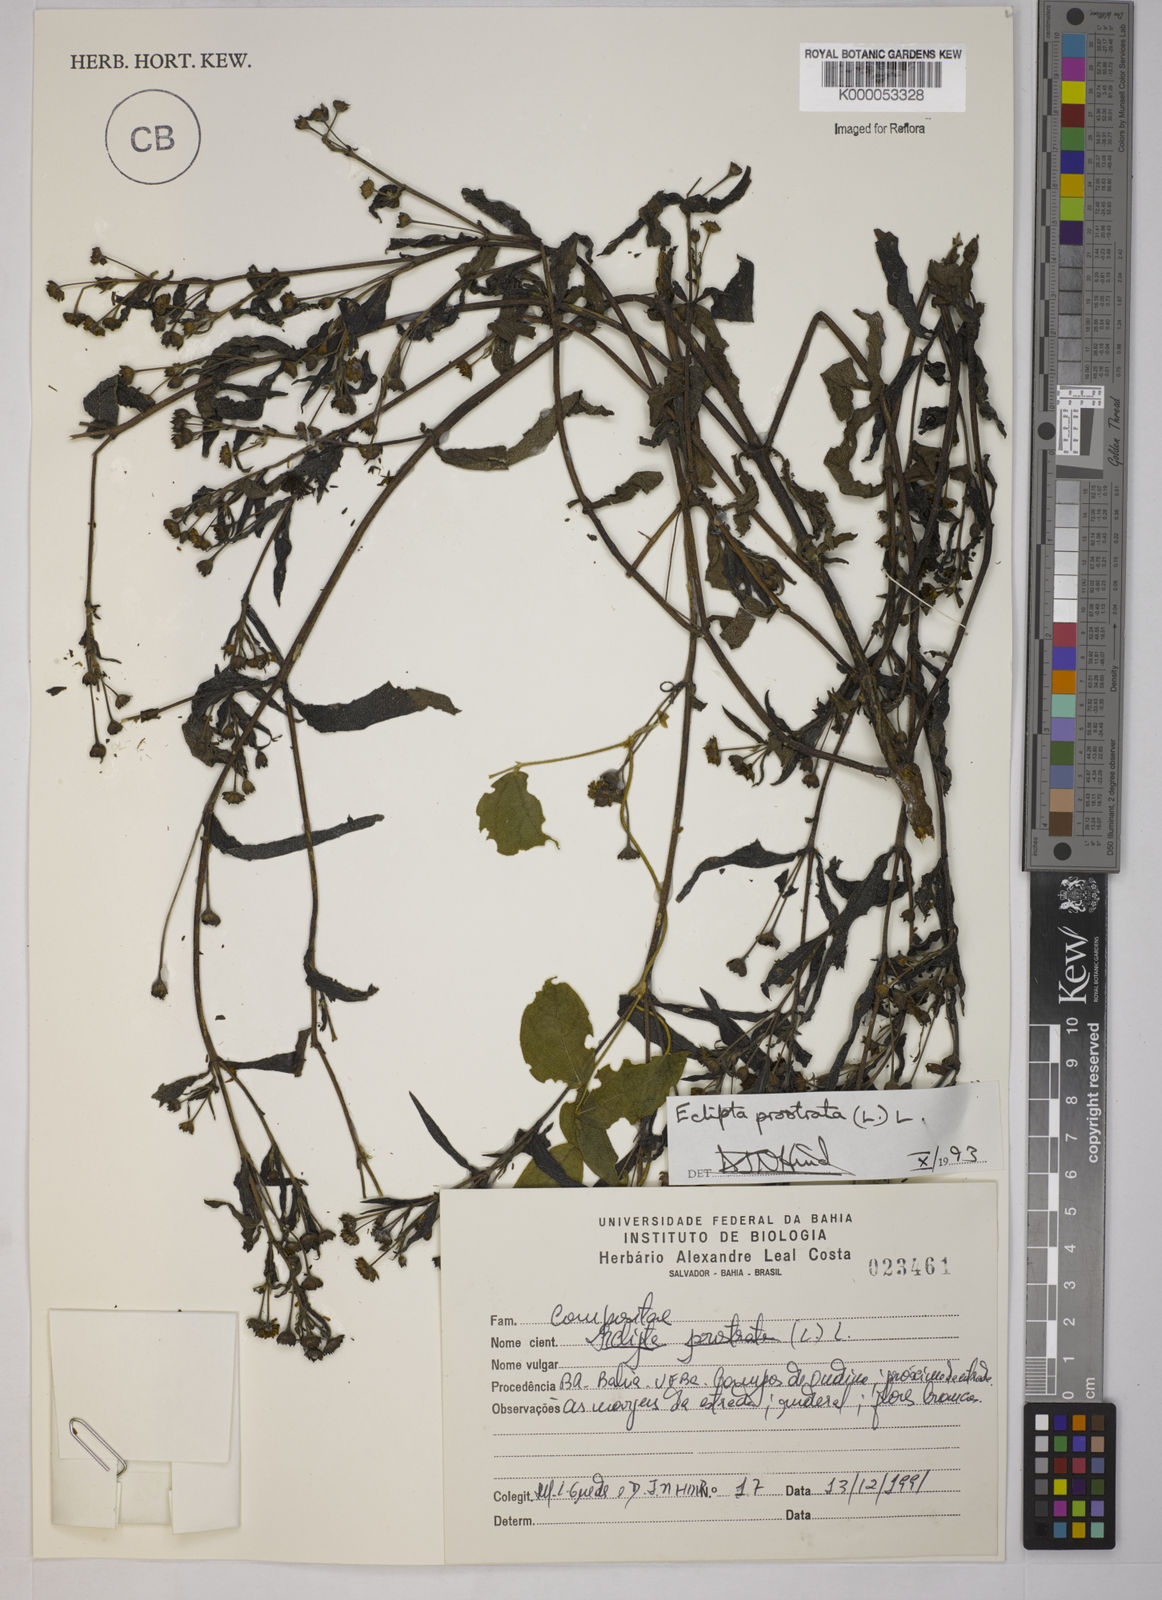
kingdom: Plantae
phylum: Tracheophyta
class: Magnoliopsida
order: Asterales
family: Asteraceae
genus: Eclipta
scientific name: Eclipta prostrata
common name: False daisy
